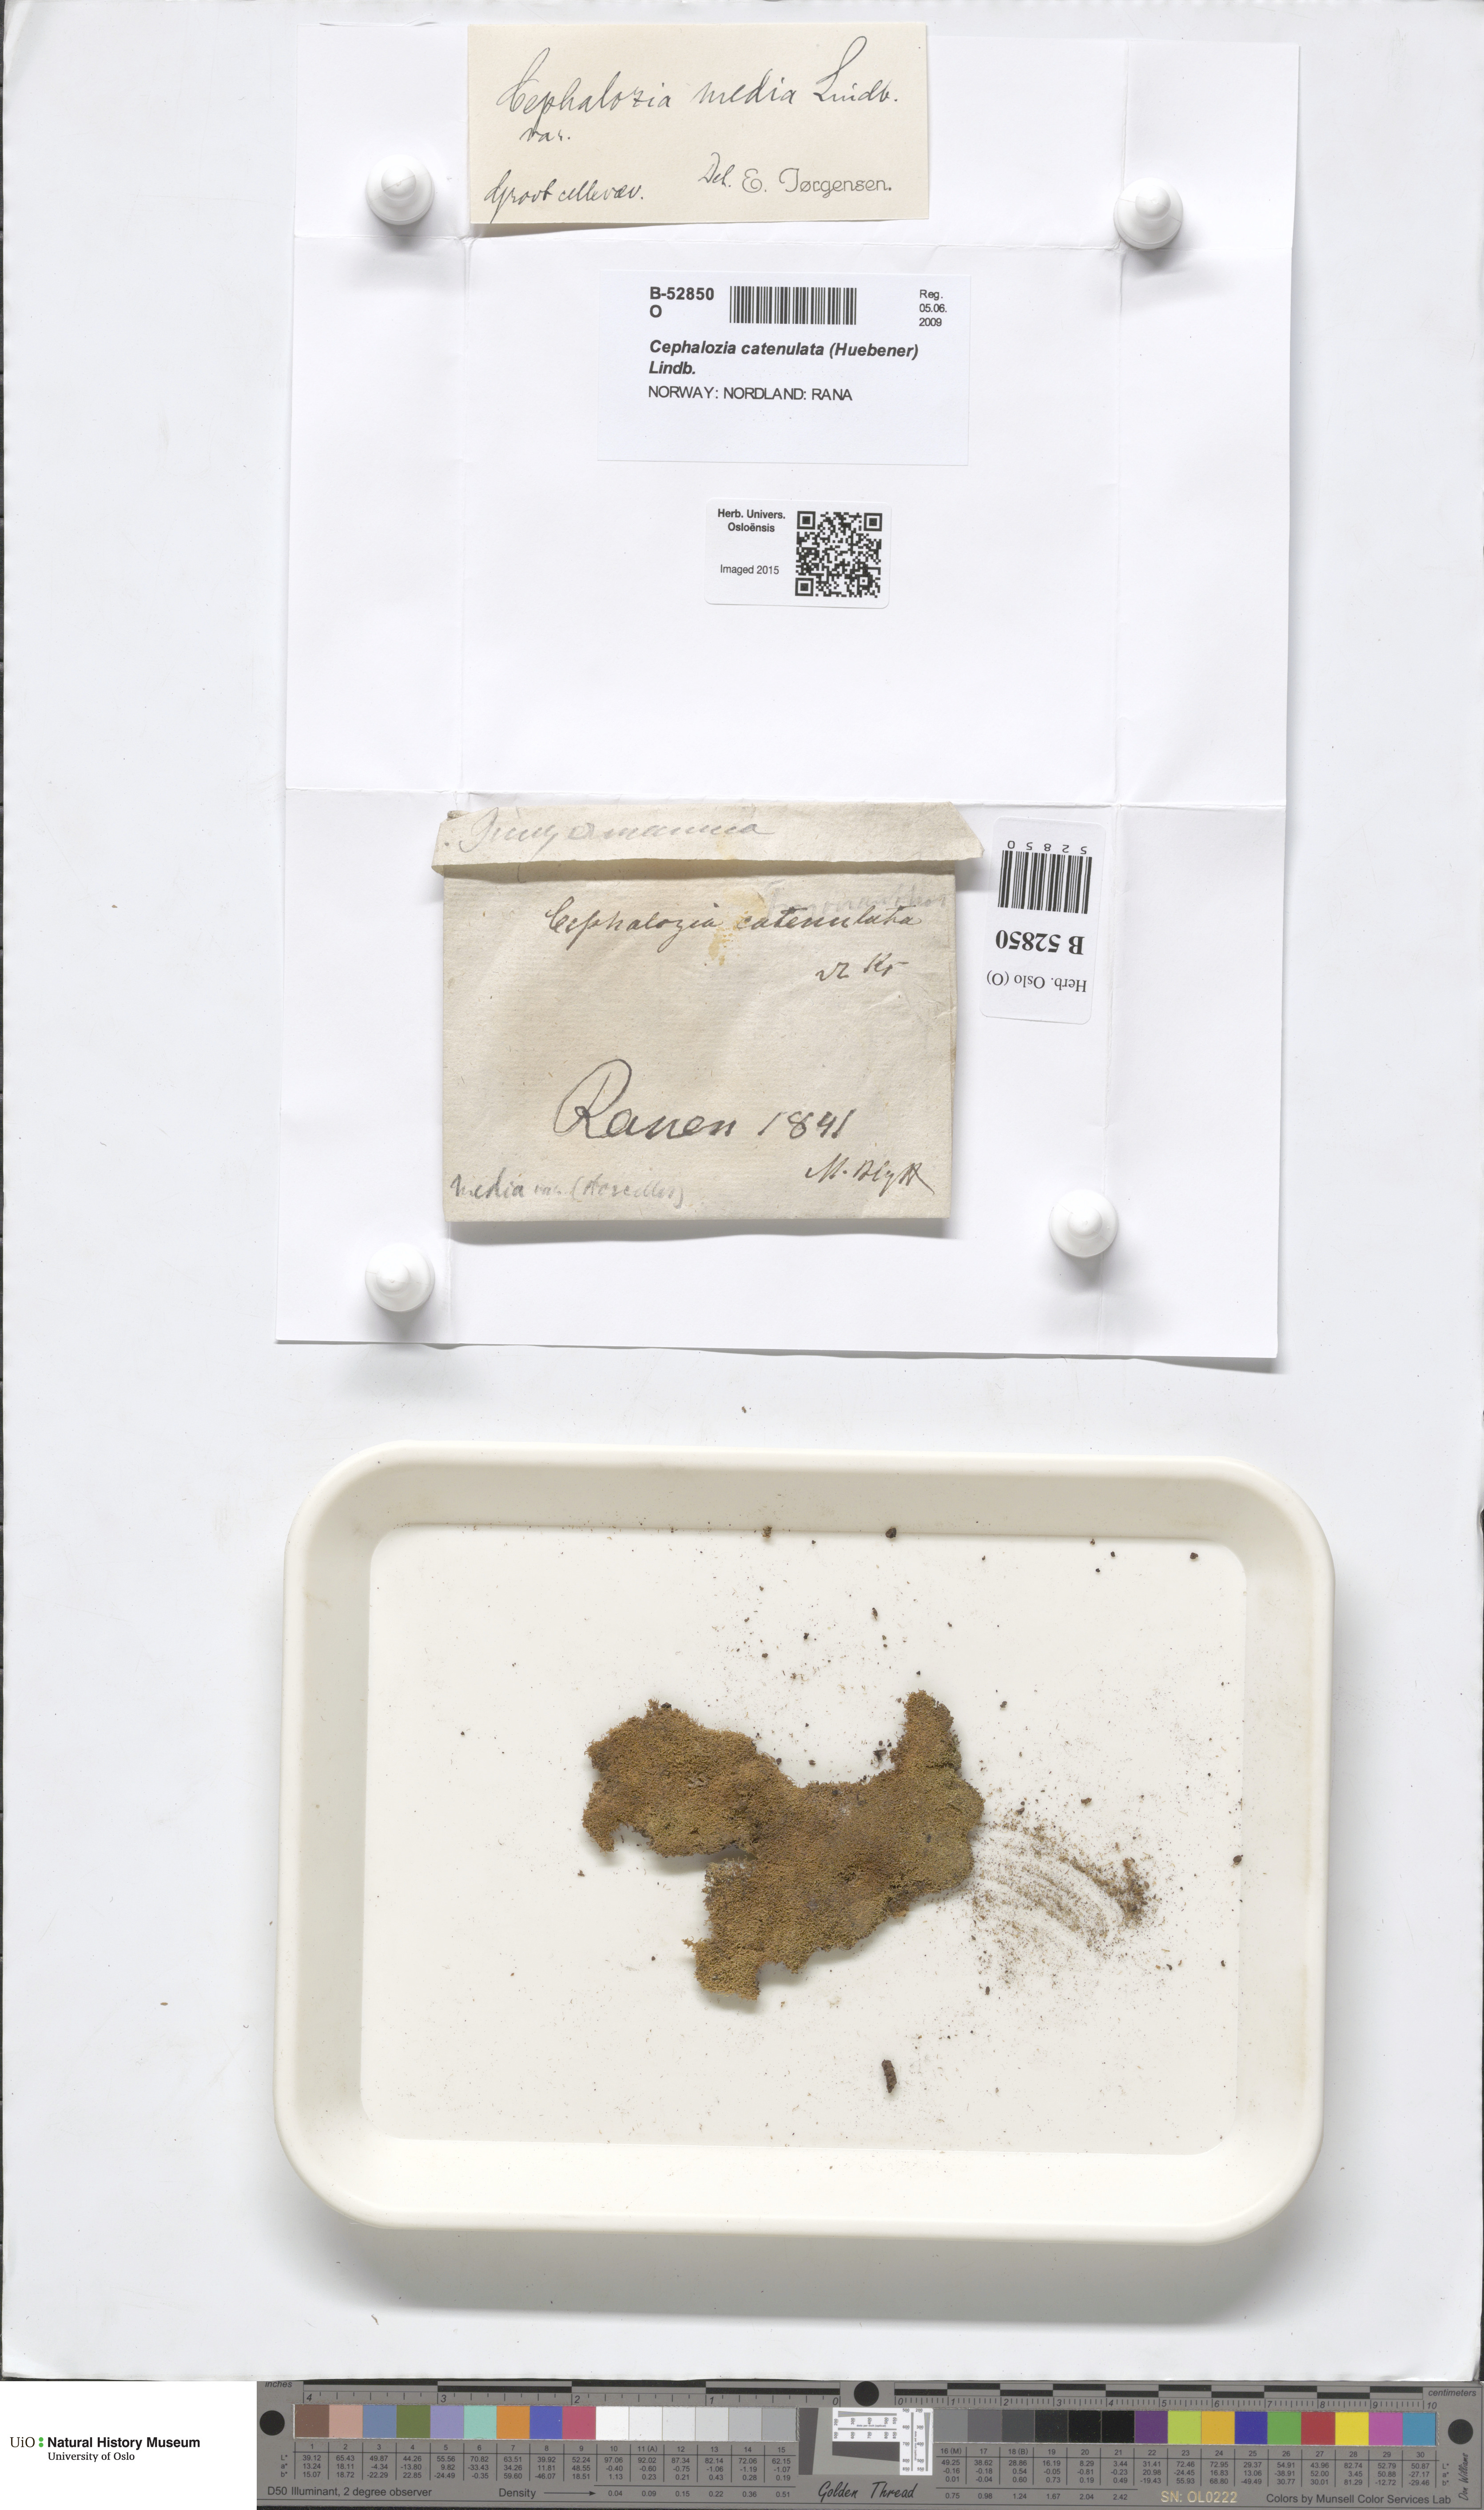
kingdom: Plantae
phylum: Marchantiophyta
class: Jungermanniopsida
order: Jungermanniales
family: Cephaloziaceae
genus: Fuscocephaloziopsis
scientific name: Fuscocephaloziopsis lunulifolia
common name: Moon-leaved pincerwort
